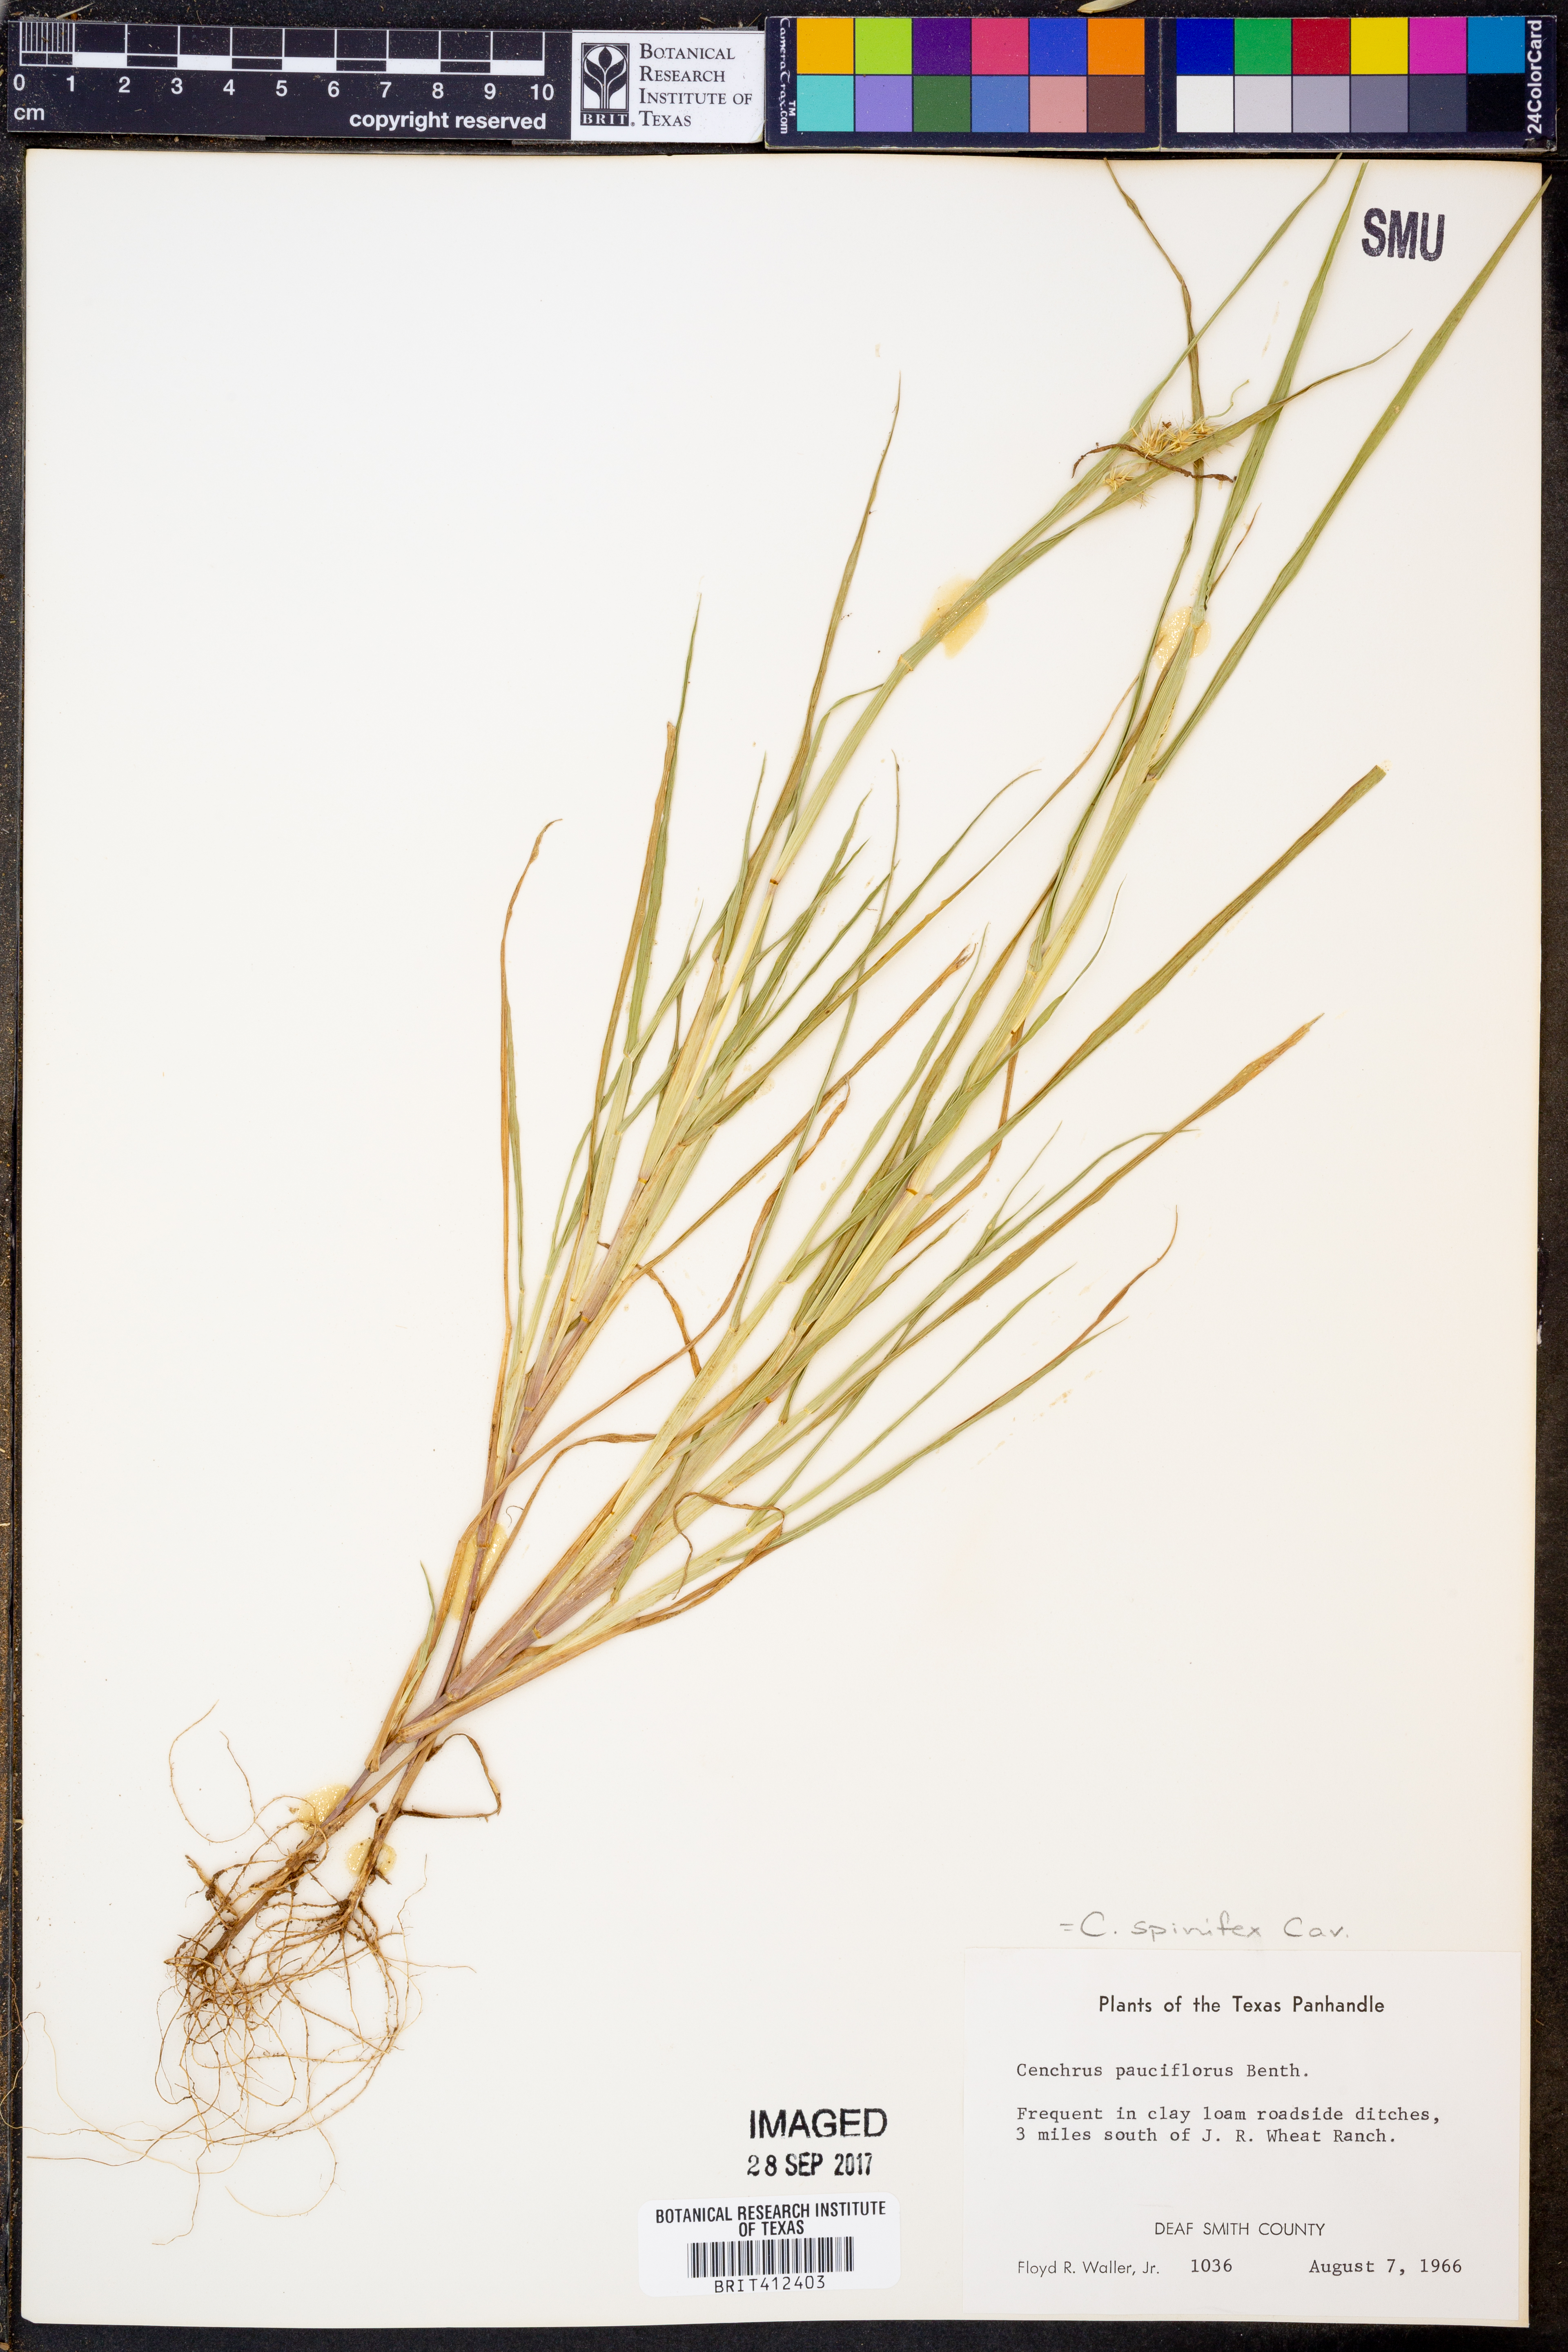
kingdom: Plantae
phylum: Tracheophyta
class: Liliopsida
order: Poales
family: Poaceae
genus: Cenchrus
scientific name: Cenchrus spinifex
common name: Coast sandbur
